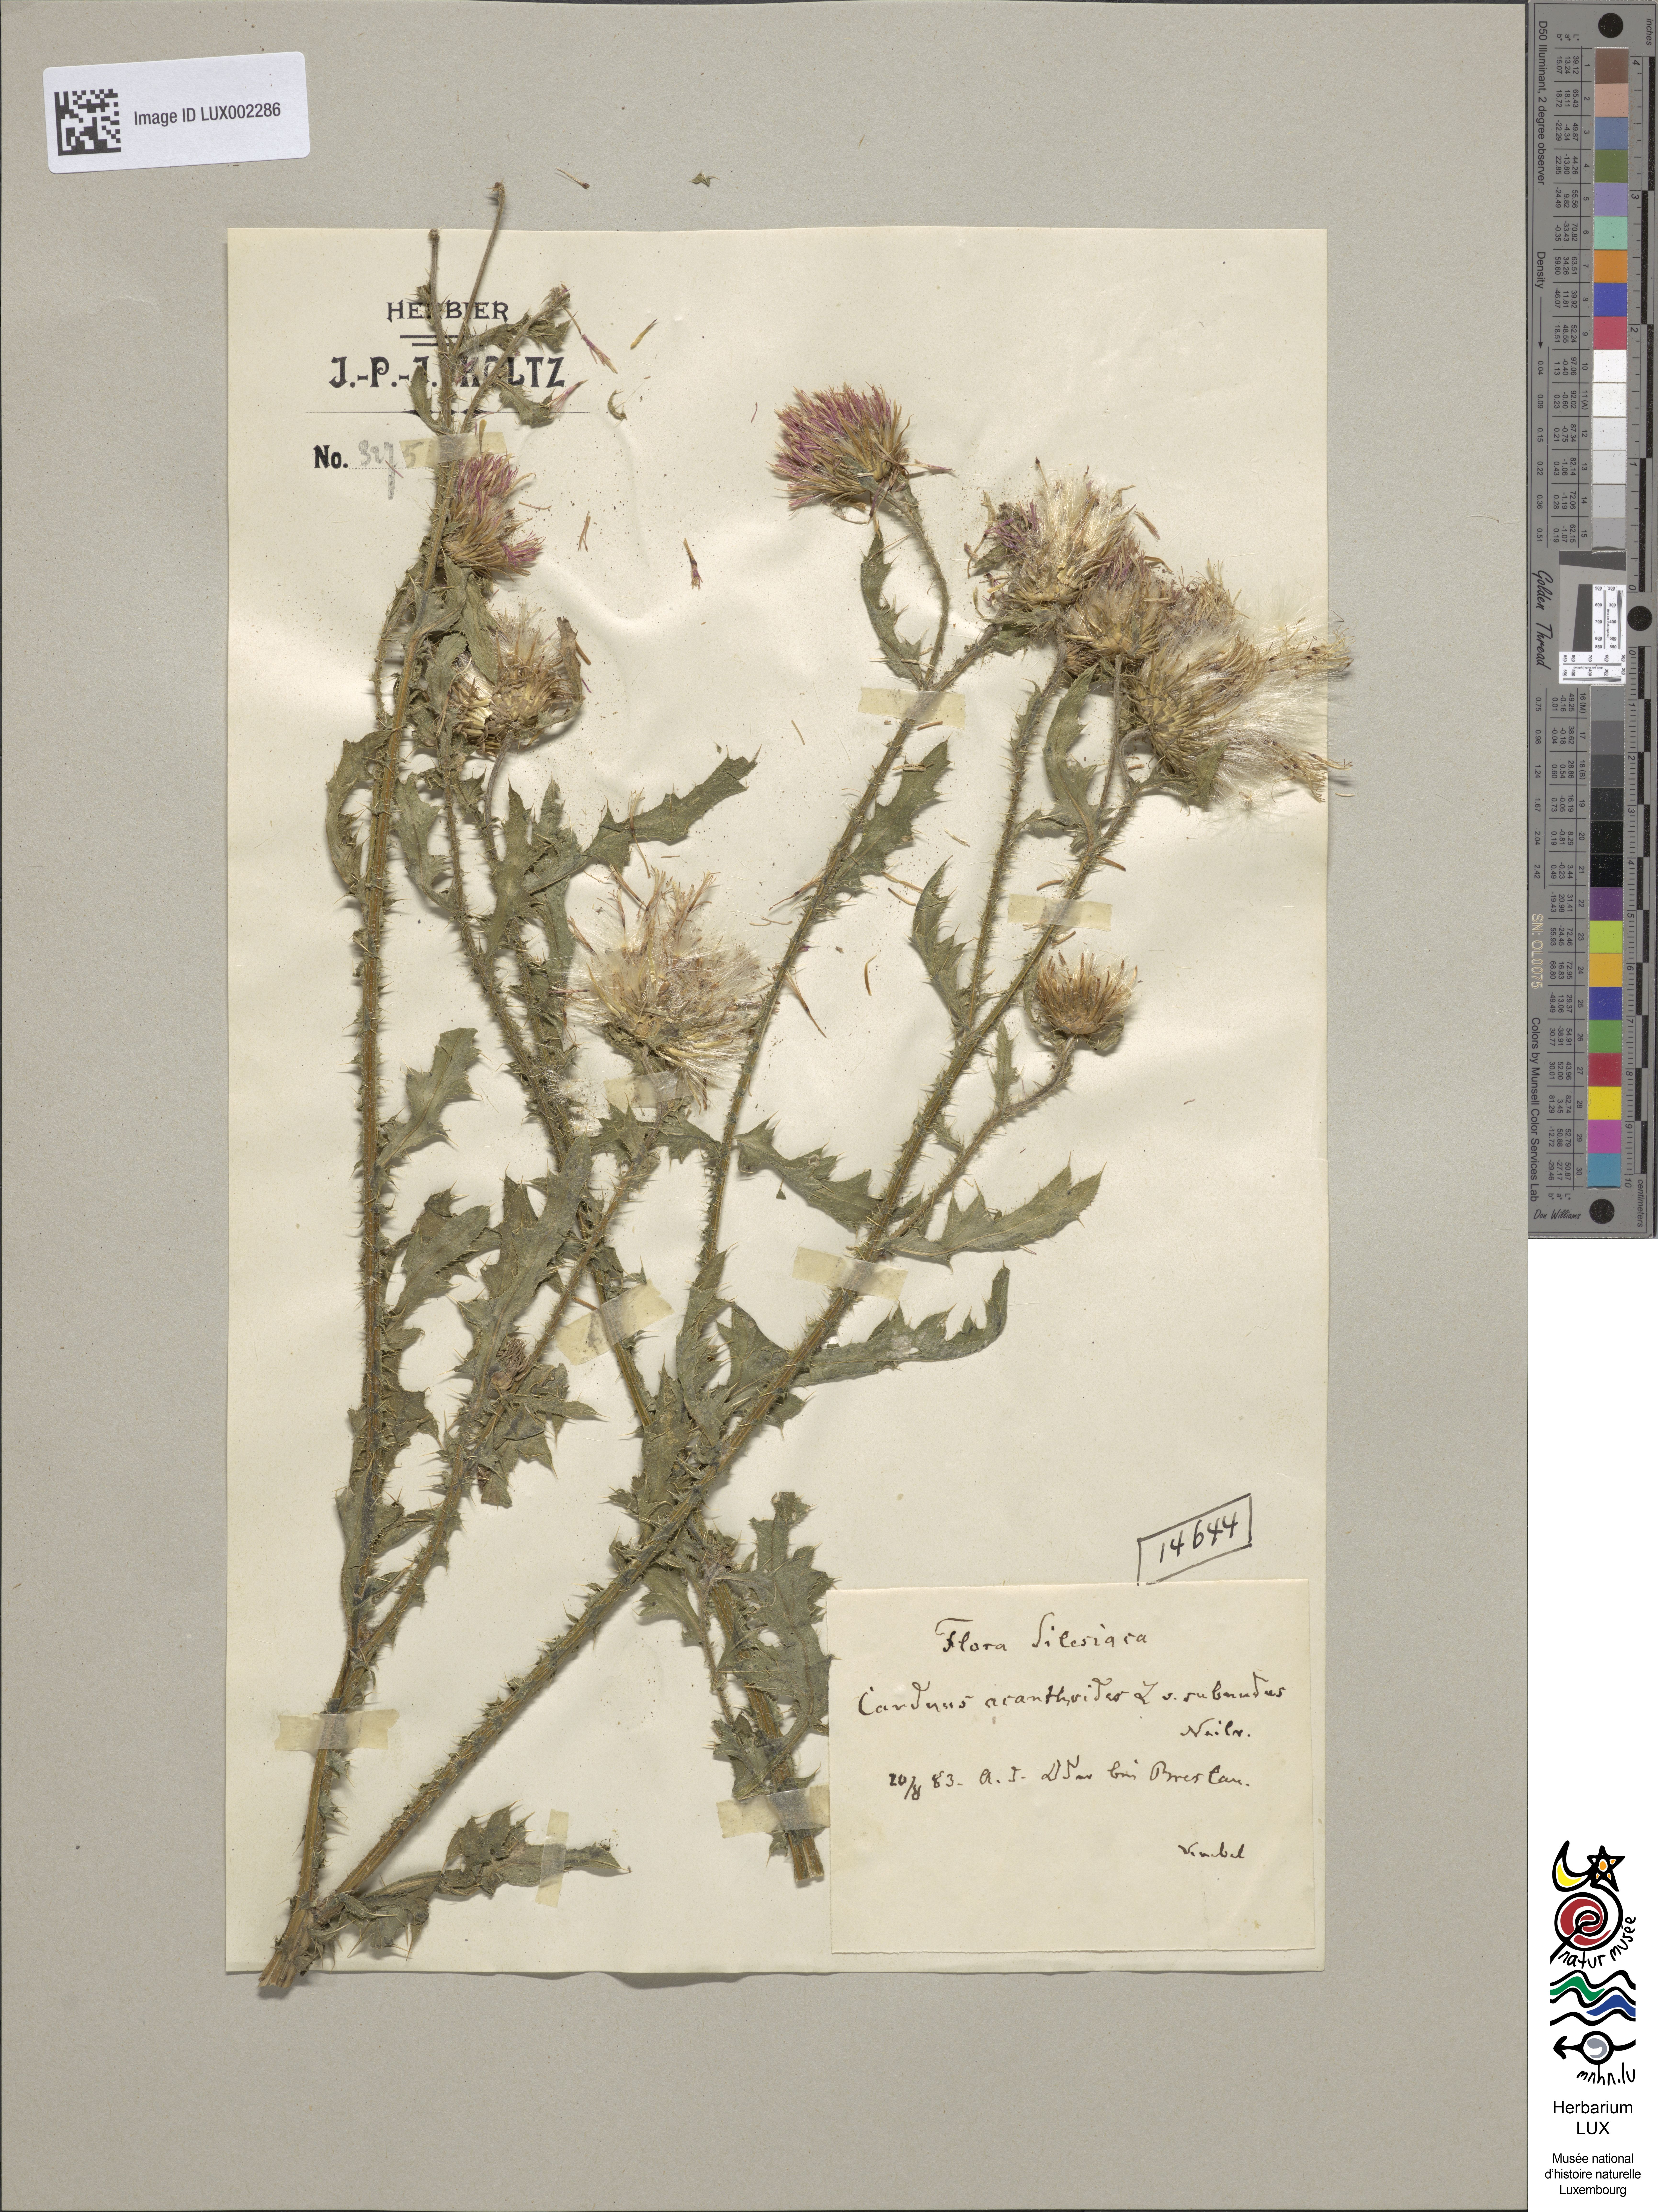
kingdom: Plantae
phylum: Tracheophyta
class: Magnoliopsida
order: Asterales
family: Asteraceae
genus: Carduus
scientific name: Carduus acanthoides
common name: Plumeless thistle
